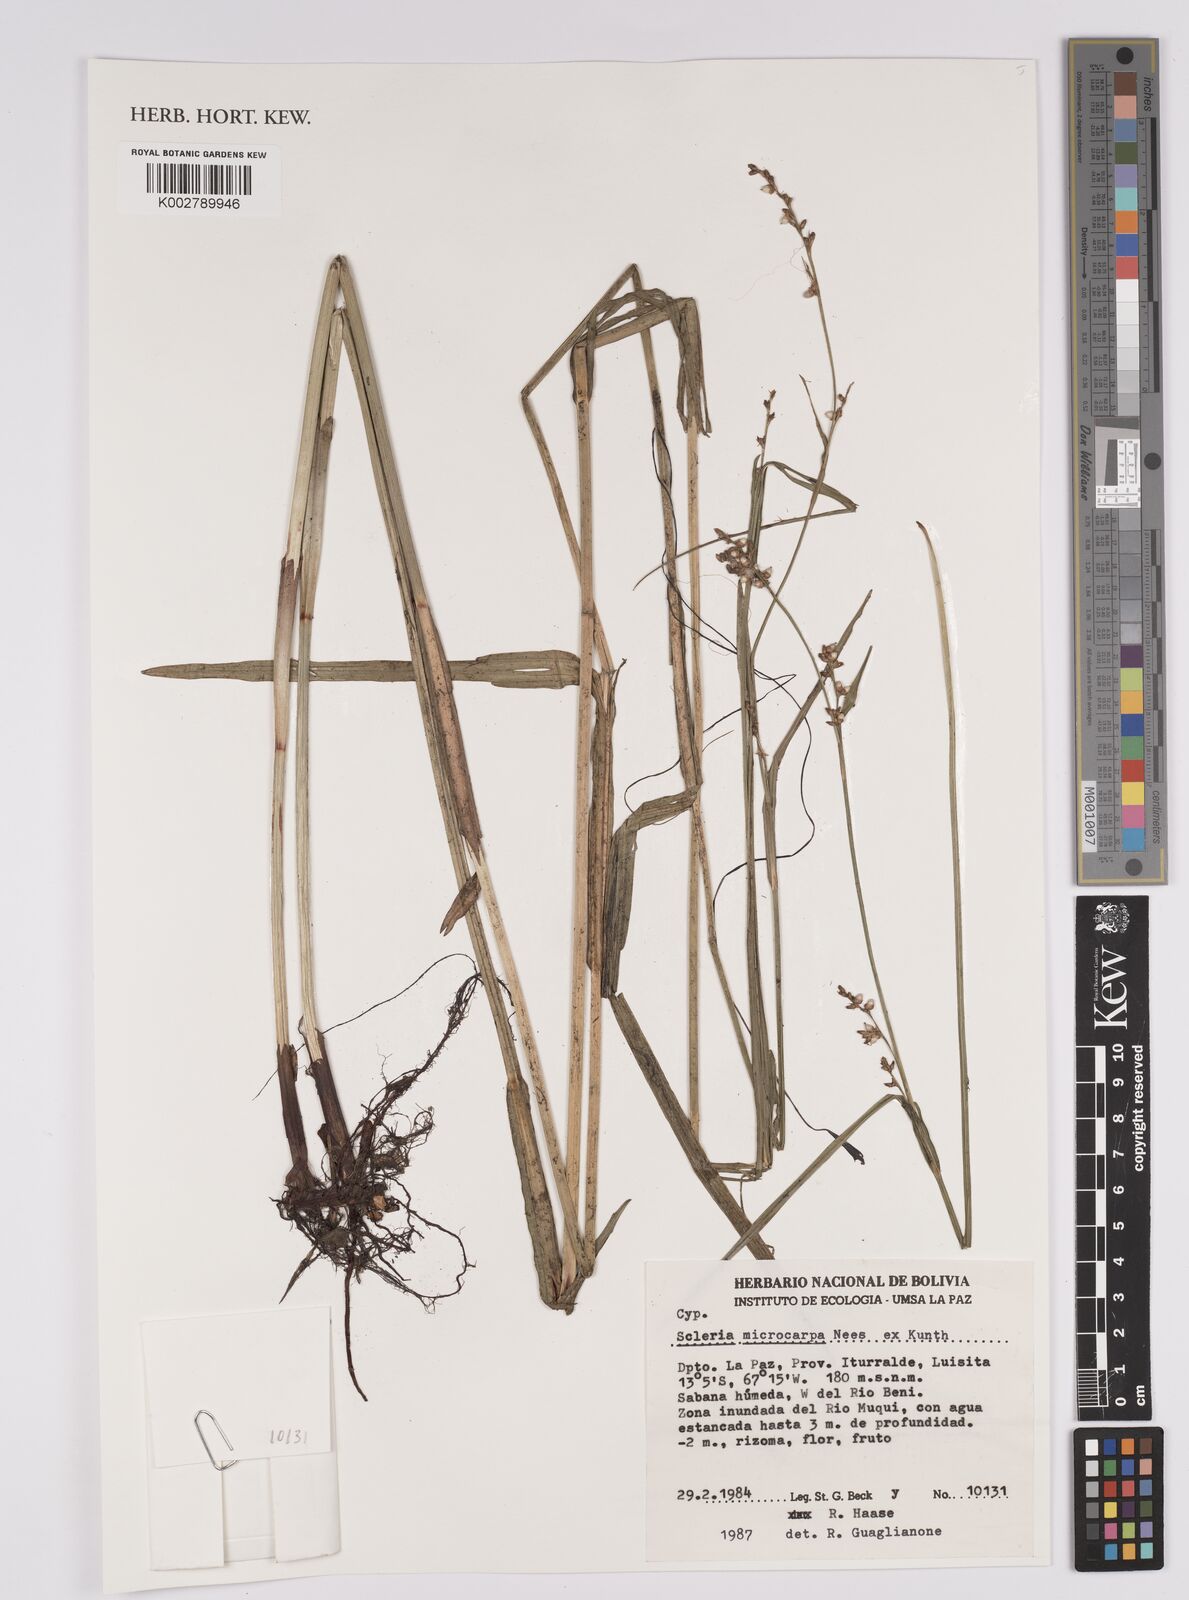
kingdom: Plantae
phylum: Tracheophyta
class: Liliopsida
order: Poales
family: Cyperaceae
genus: Scleria
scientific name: Scleria microcarpa
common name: Tropical nutrush
